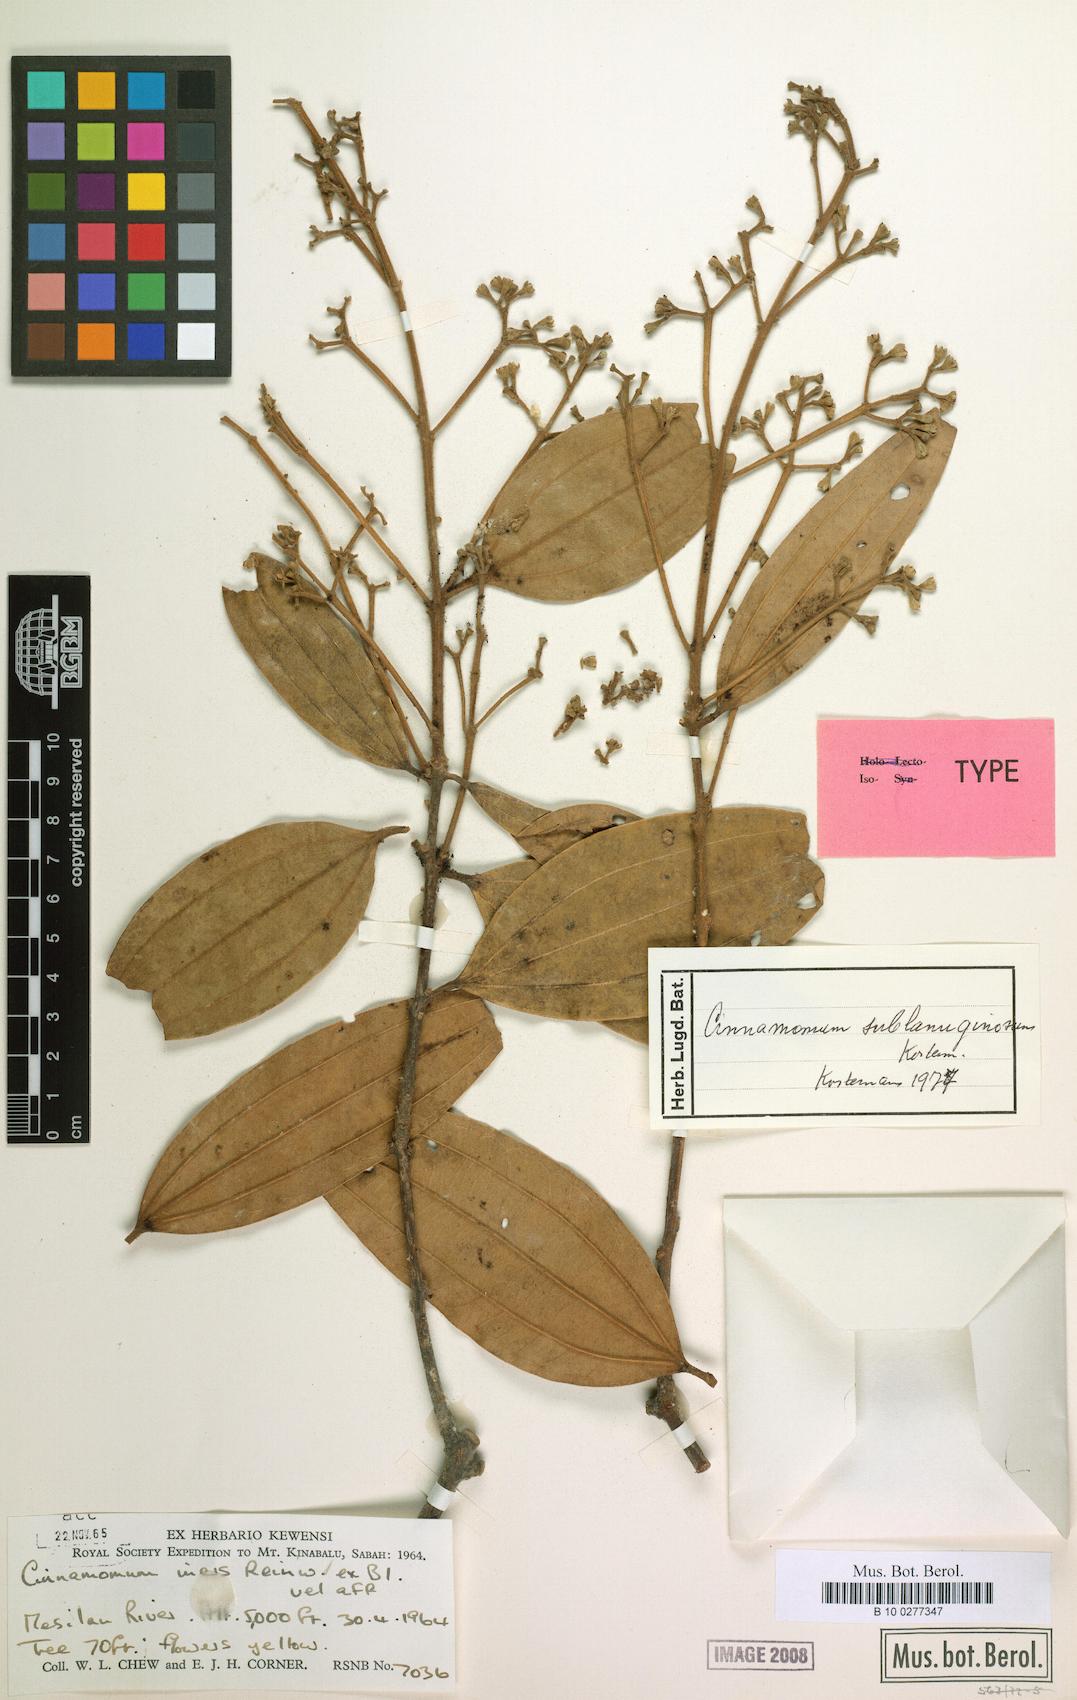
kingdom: Plantae
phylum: Tracheophyta
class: Magnoliopsida
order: Laurales
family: Lauraceae
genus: Cinnamomum
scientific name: Cinnamomum sublanuginosum
